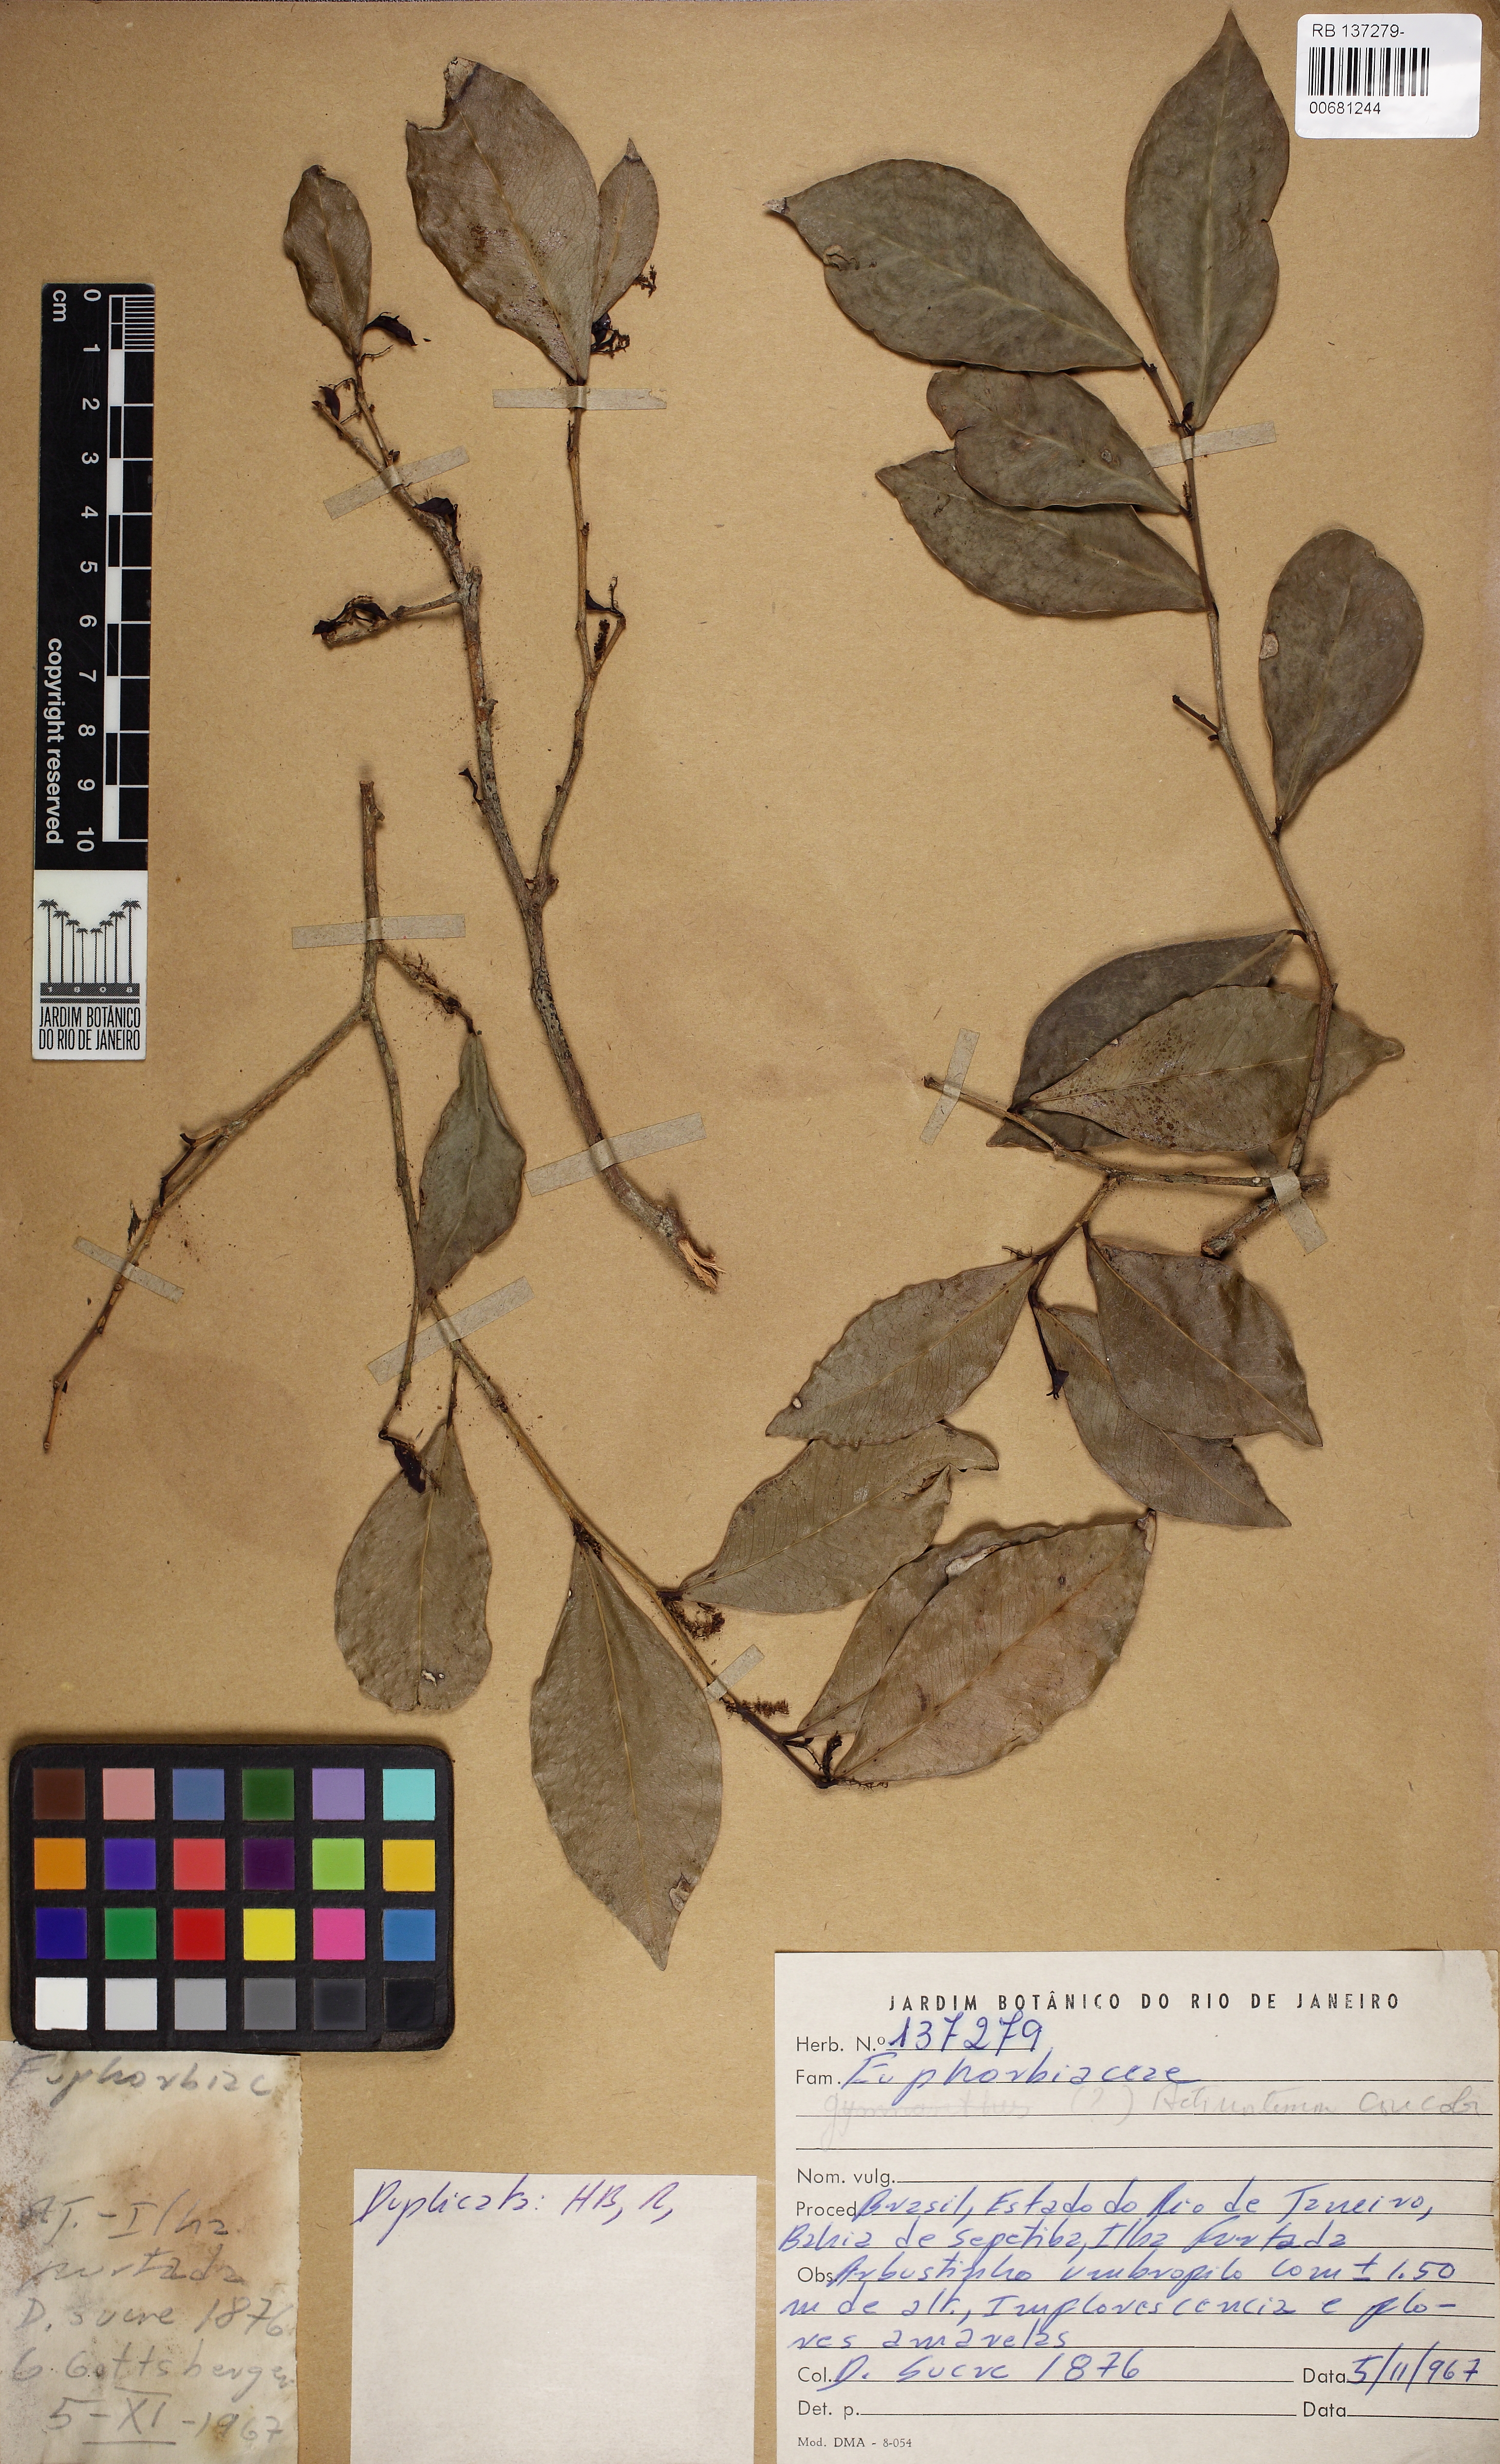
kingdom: Plantae
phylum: Tracheophyta
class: Magnoliopsida
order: Malpighiales
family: Euphorbiaceae
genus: Actinostemon
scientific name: Actinostemon concolor
